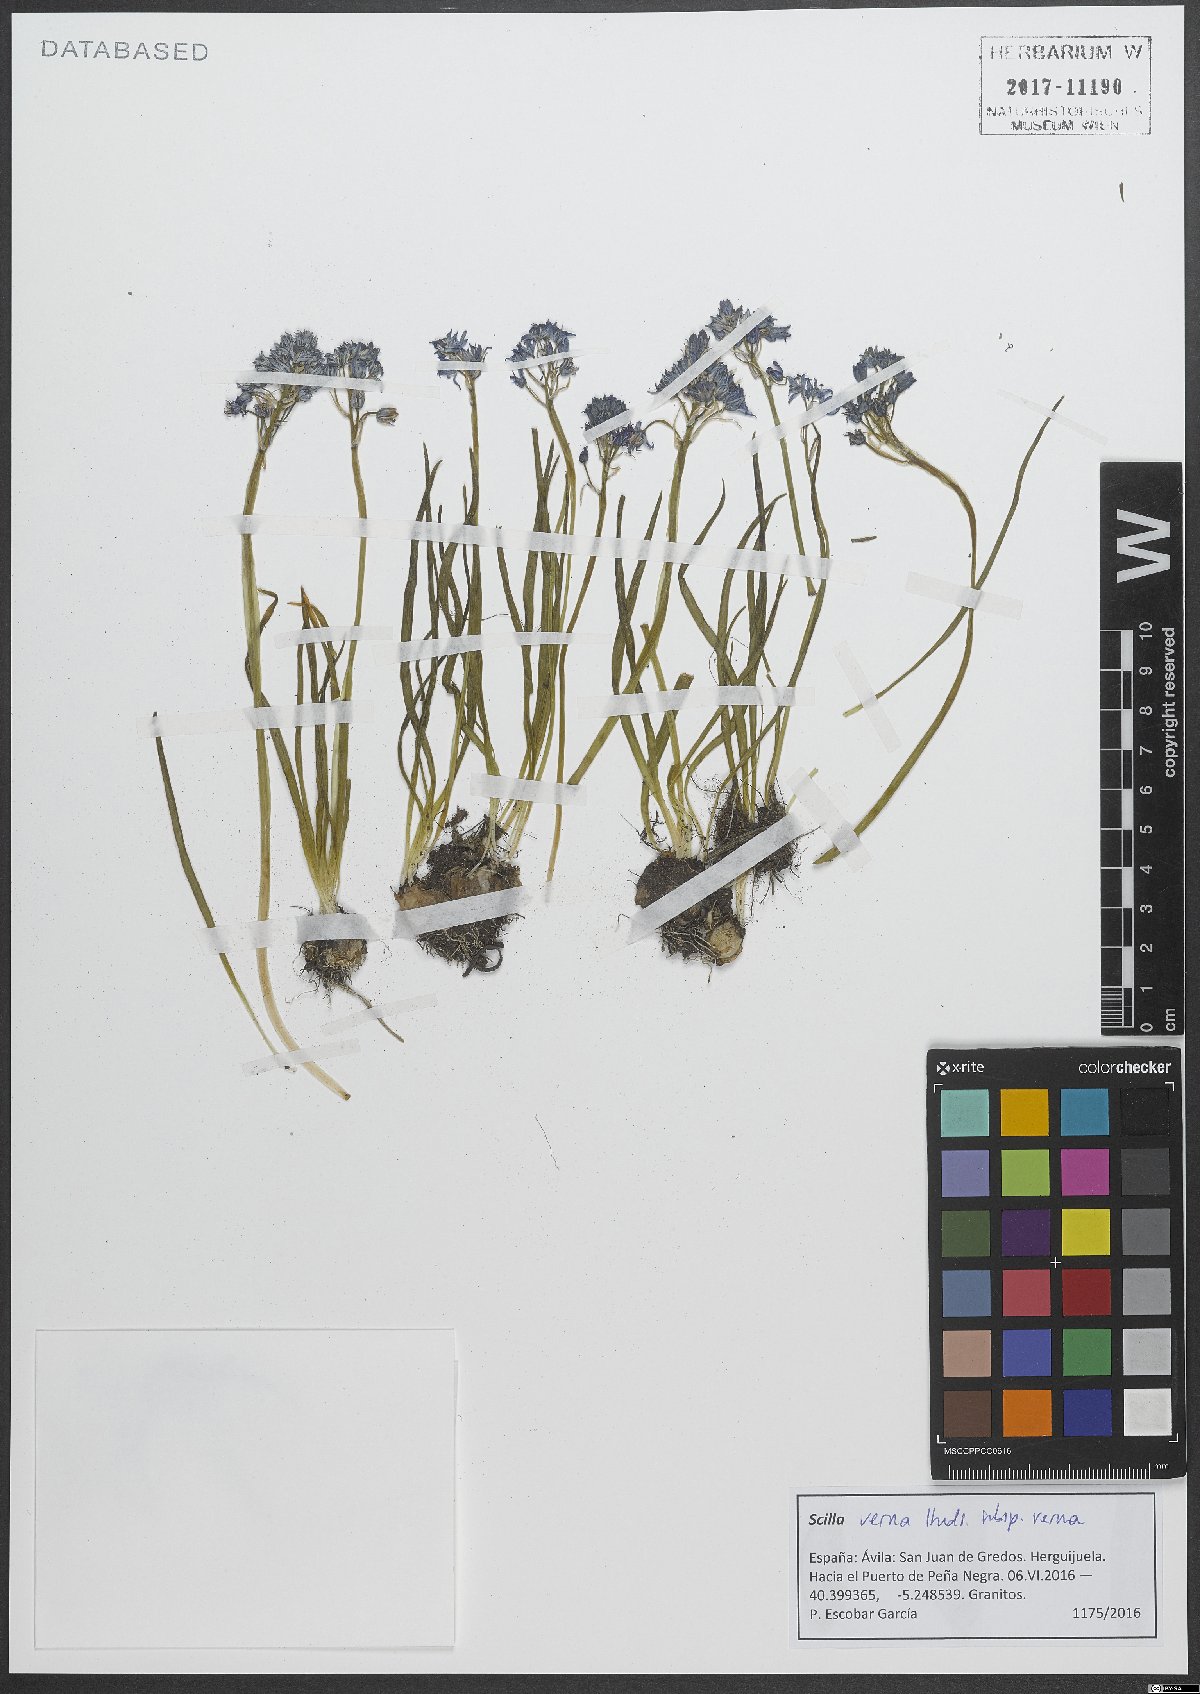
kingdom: Plantae
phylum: Tracheophyta
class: Liliopsida
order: Asparagales
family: Asparagaceae
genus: Scilla
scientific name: Scilla verna
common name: Spring squill
